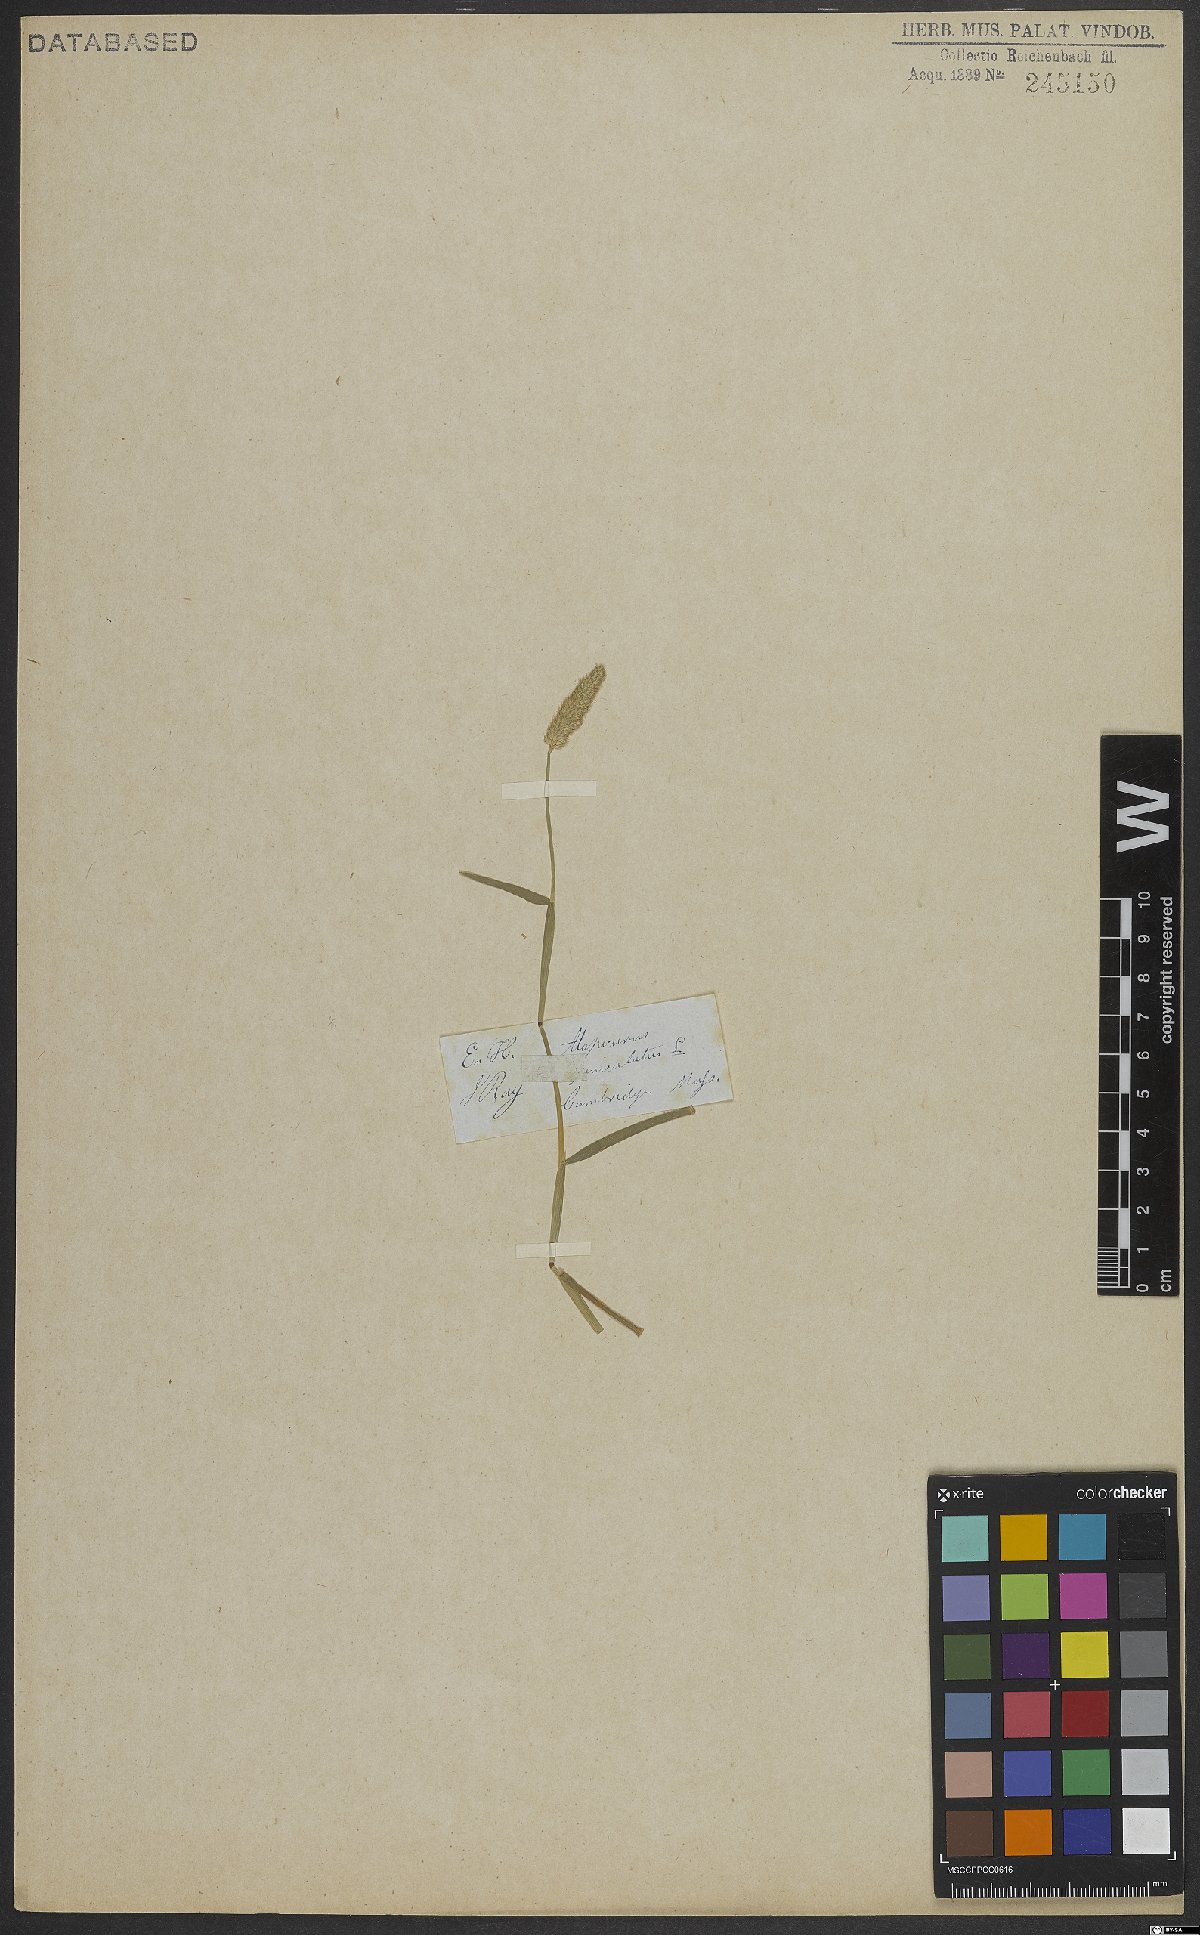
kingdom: Plantae
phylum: Tracheophyta
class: Liliopsida
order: Poales
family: Poaceae
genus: Alopecurus
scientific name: Alopecurus geniculatus
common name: Water foxtail
